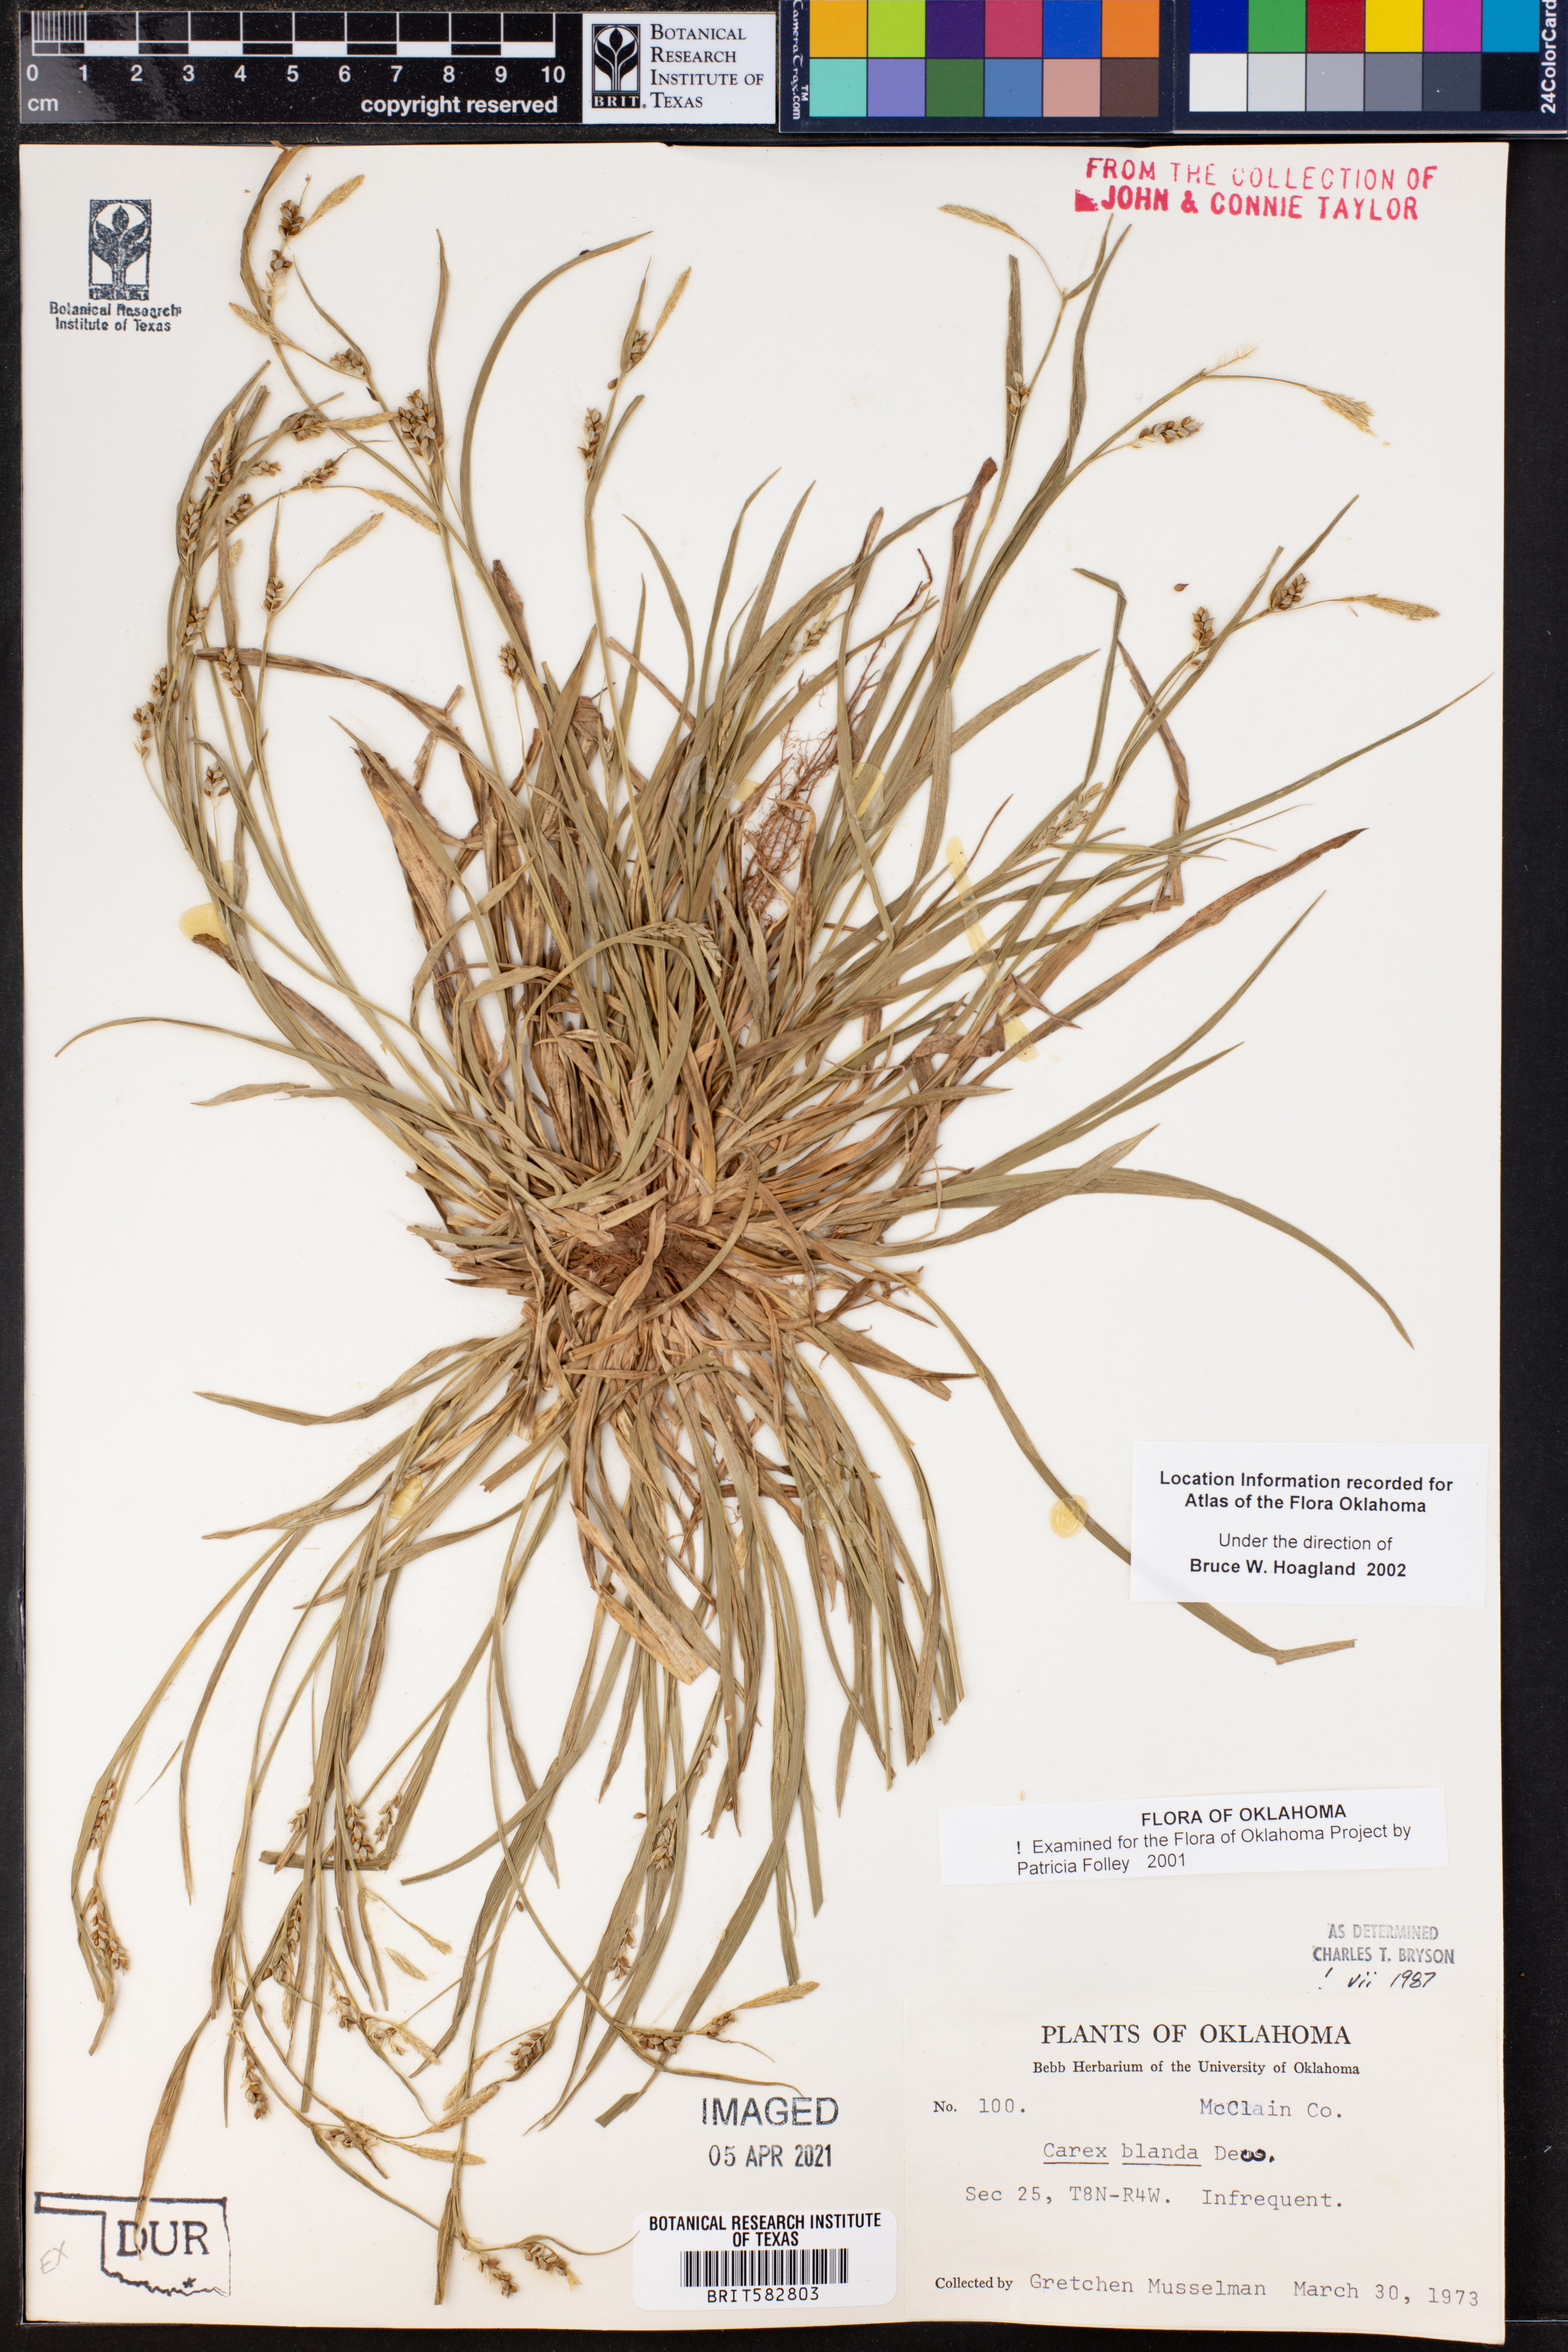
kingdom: Plantae
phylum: Tracheophyta
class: Liliopsida
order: Poales
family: Cyperaceae
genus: Carex
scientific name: Carex blanda
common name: Bland sedge
